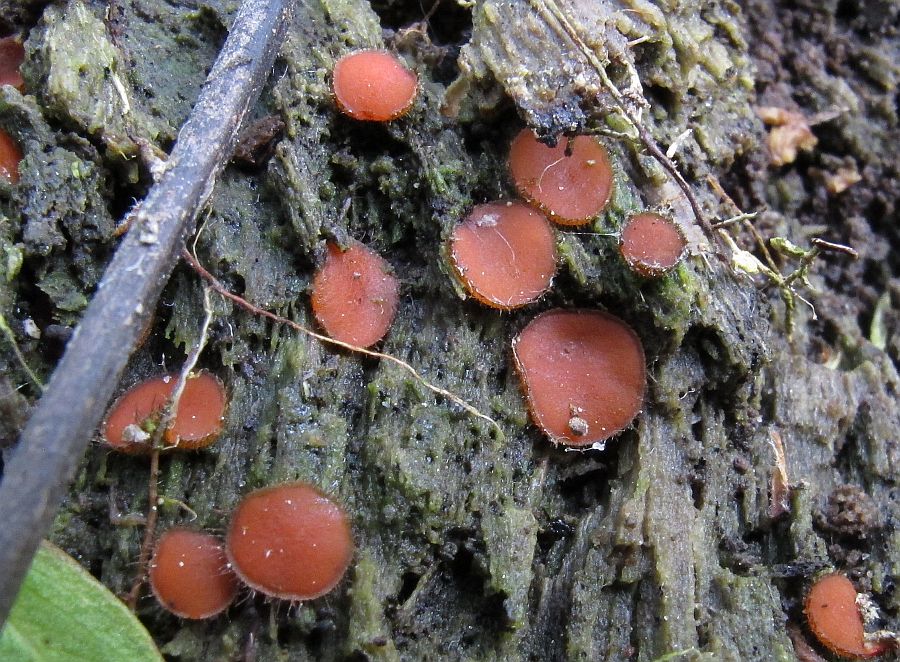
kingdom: Fungi
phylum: Ascomycota
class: Pezizomycetes
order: Pezizales
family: Pyronemataceae
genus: Scutellinia
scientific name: Scutellinia scutellata
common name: frynset skjoldbæger
